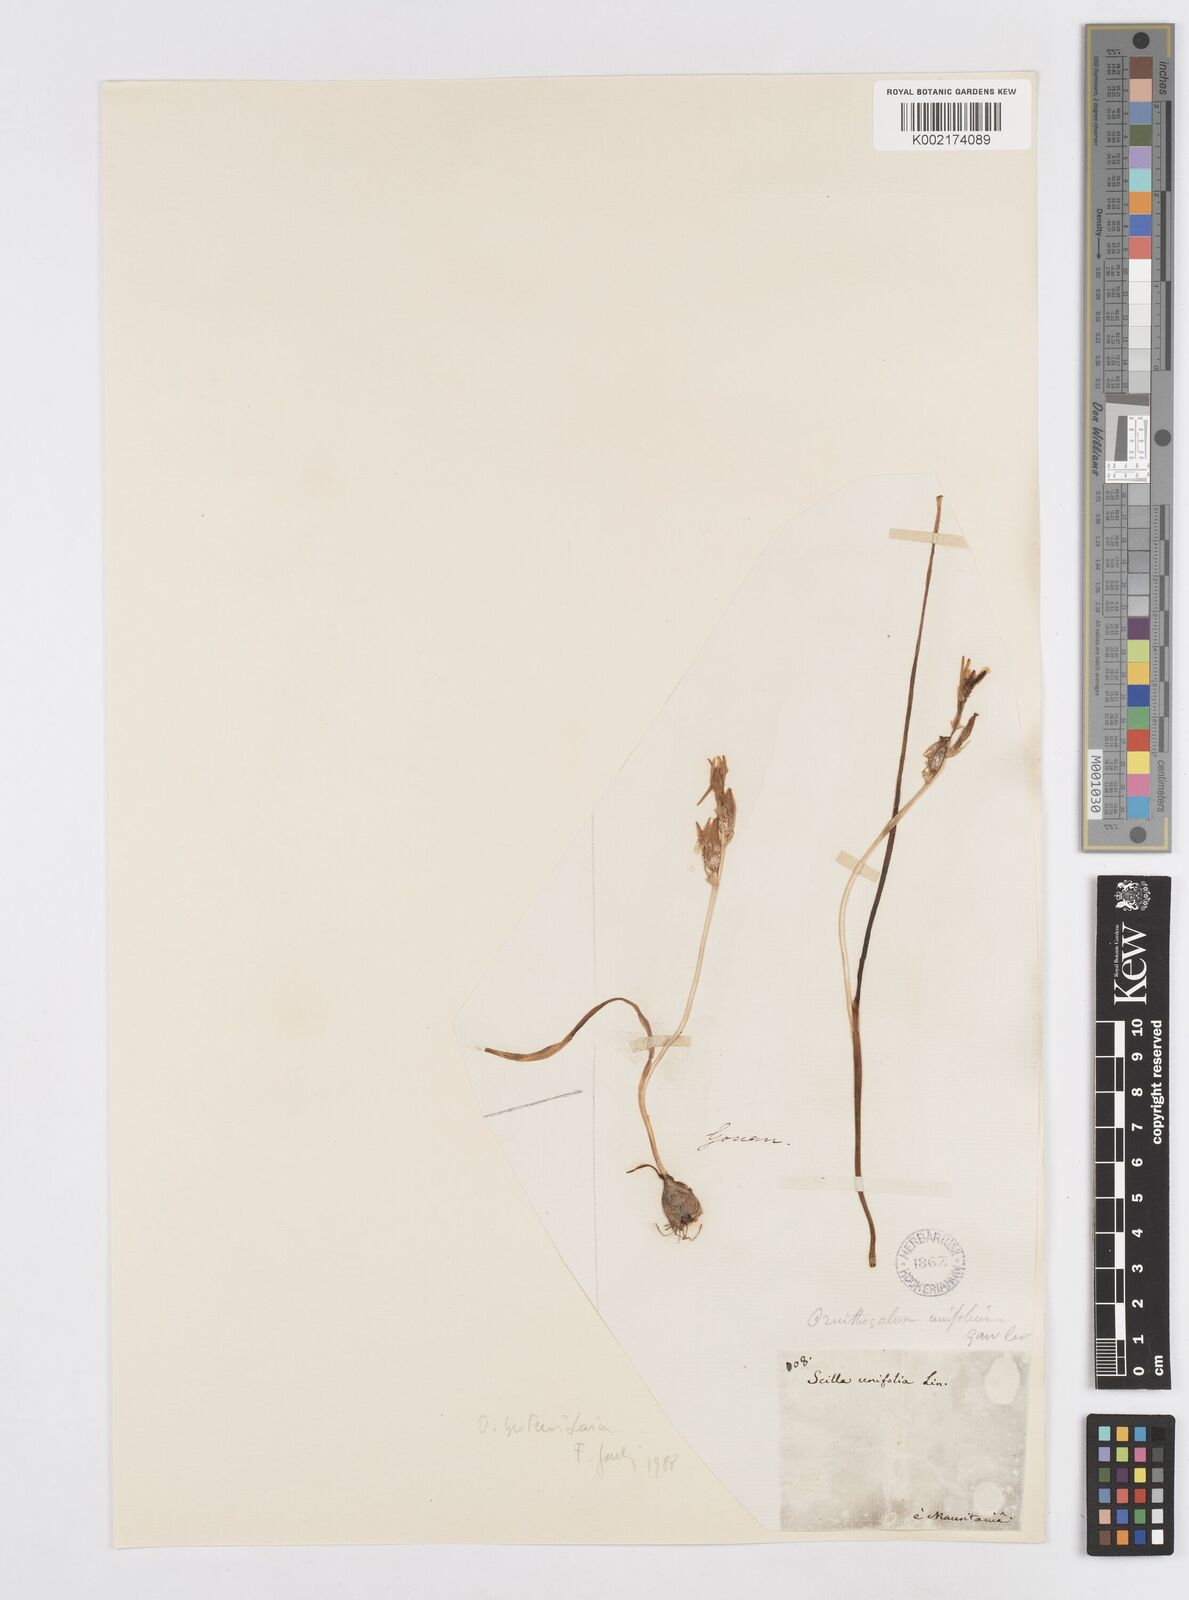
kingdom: Plantae
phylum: Tracheophyta
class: Liliopsida
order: Asparagales
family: Asparagaceae
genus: Ornithogalum
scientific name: Ornithogalum broteroi
